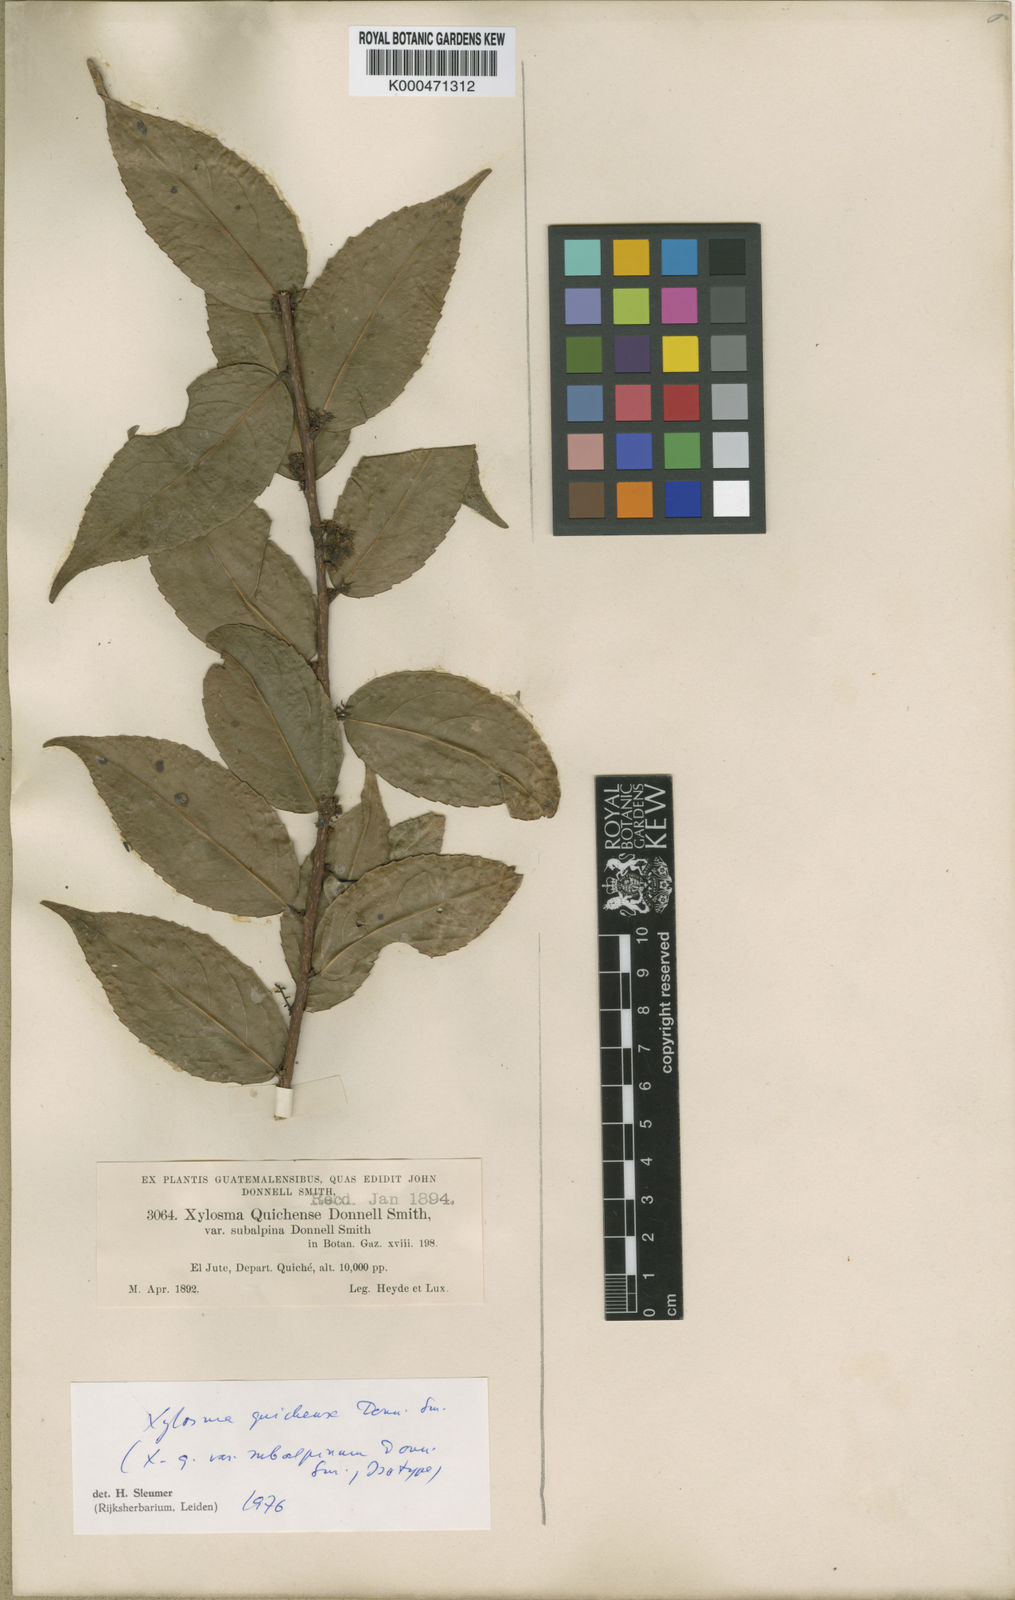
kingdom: Plantae
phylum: Tracheophyta
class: Magnoliopsida
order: Malpighiales
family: Salicaceae
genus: Xylosma
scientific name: Xylosma
